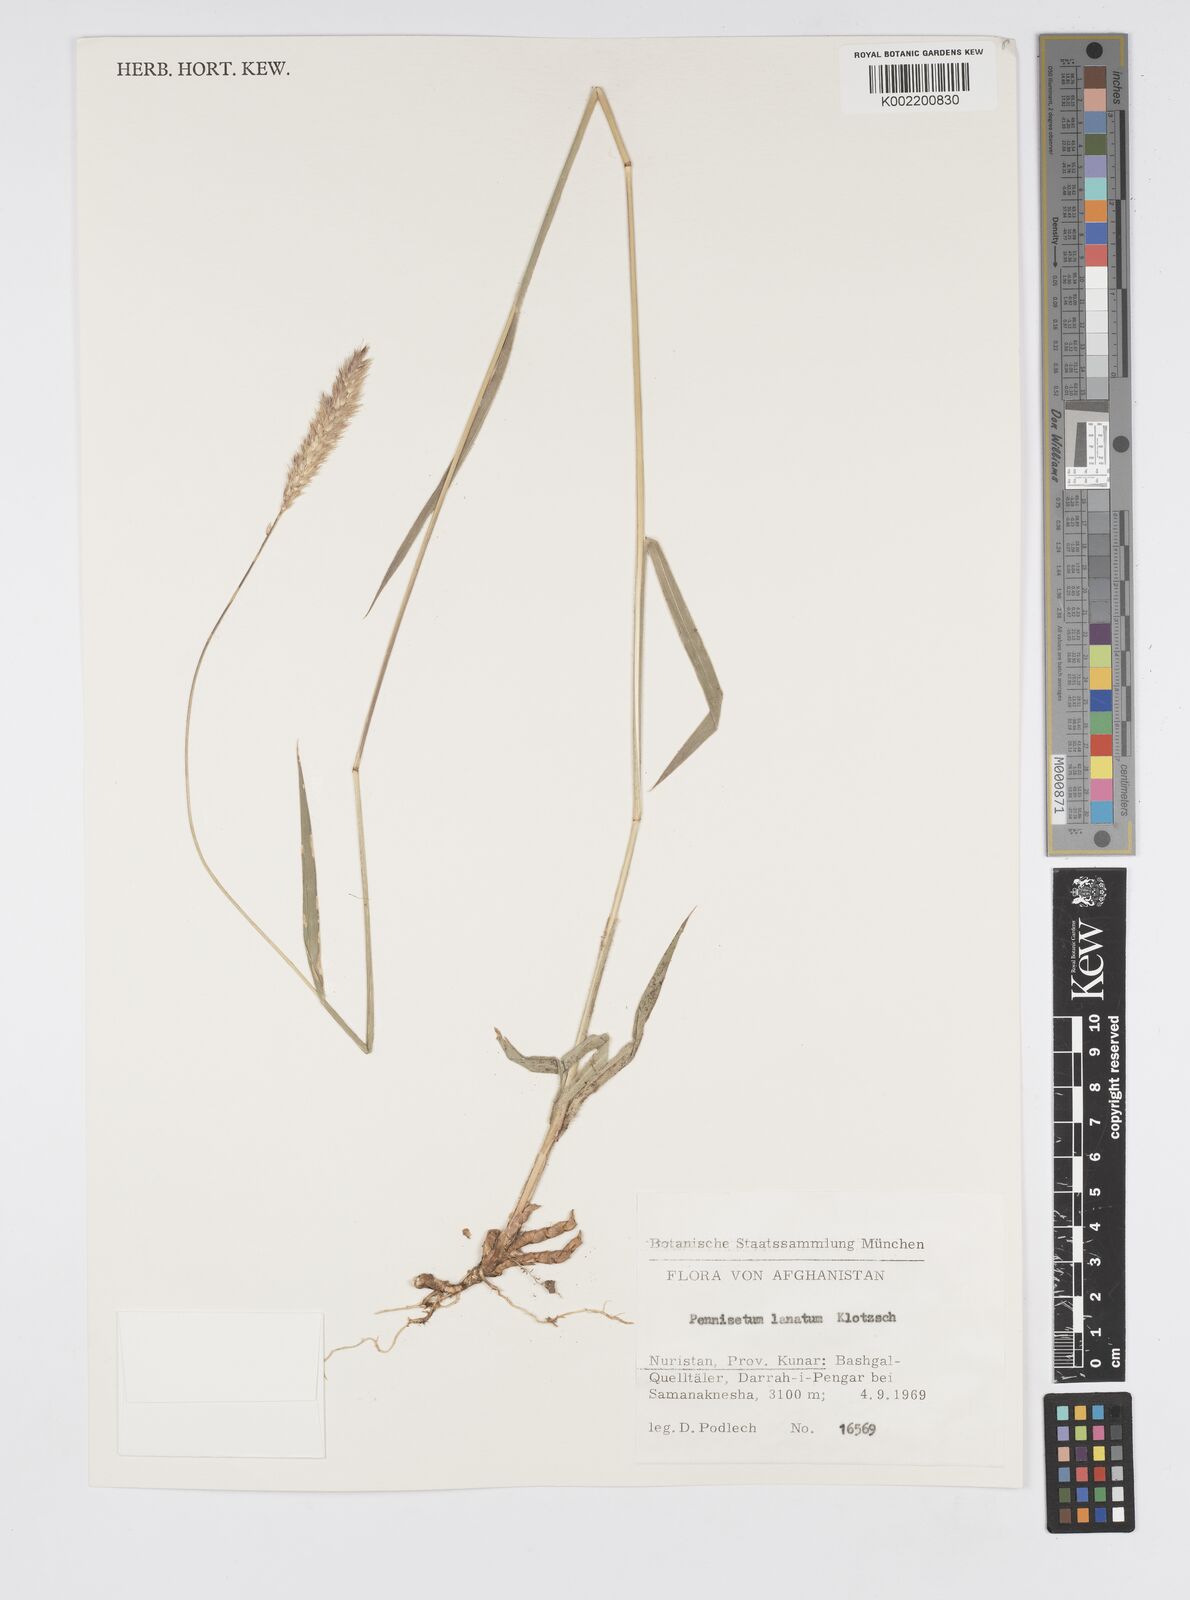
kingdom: Plantae
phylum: Tracheophyta
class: Liliopsida
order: Poales
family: Poaceae
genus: Cenchrus
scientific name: Cenchrus lanatus
